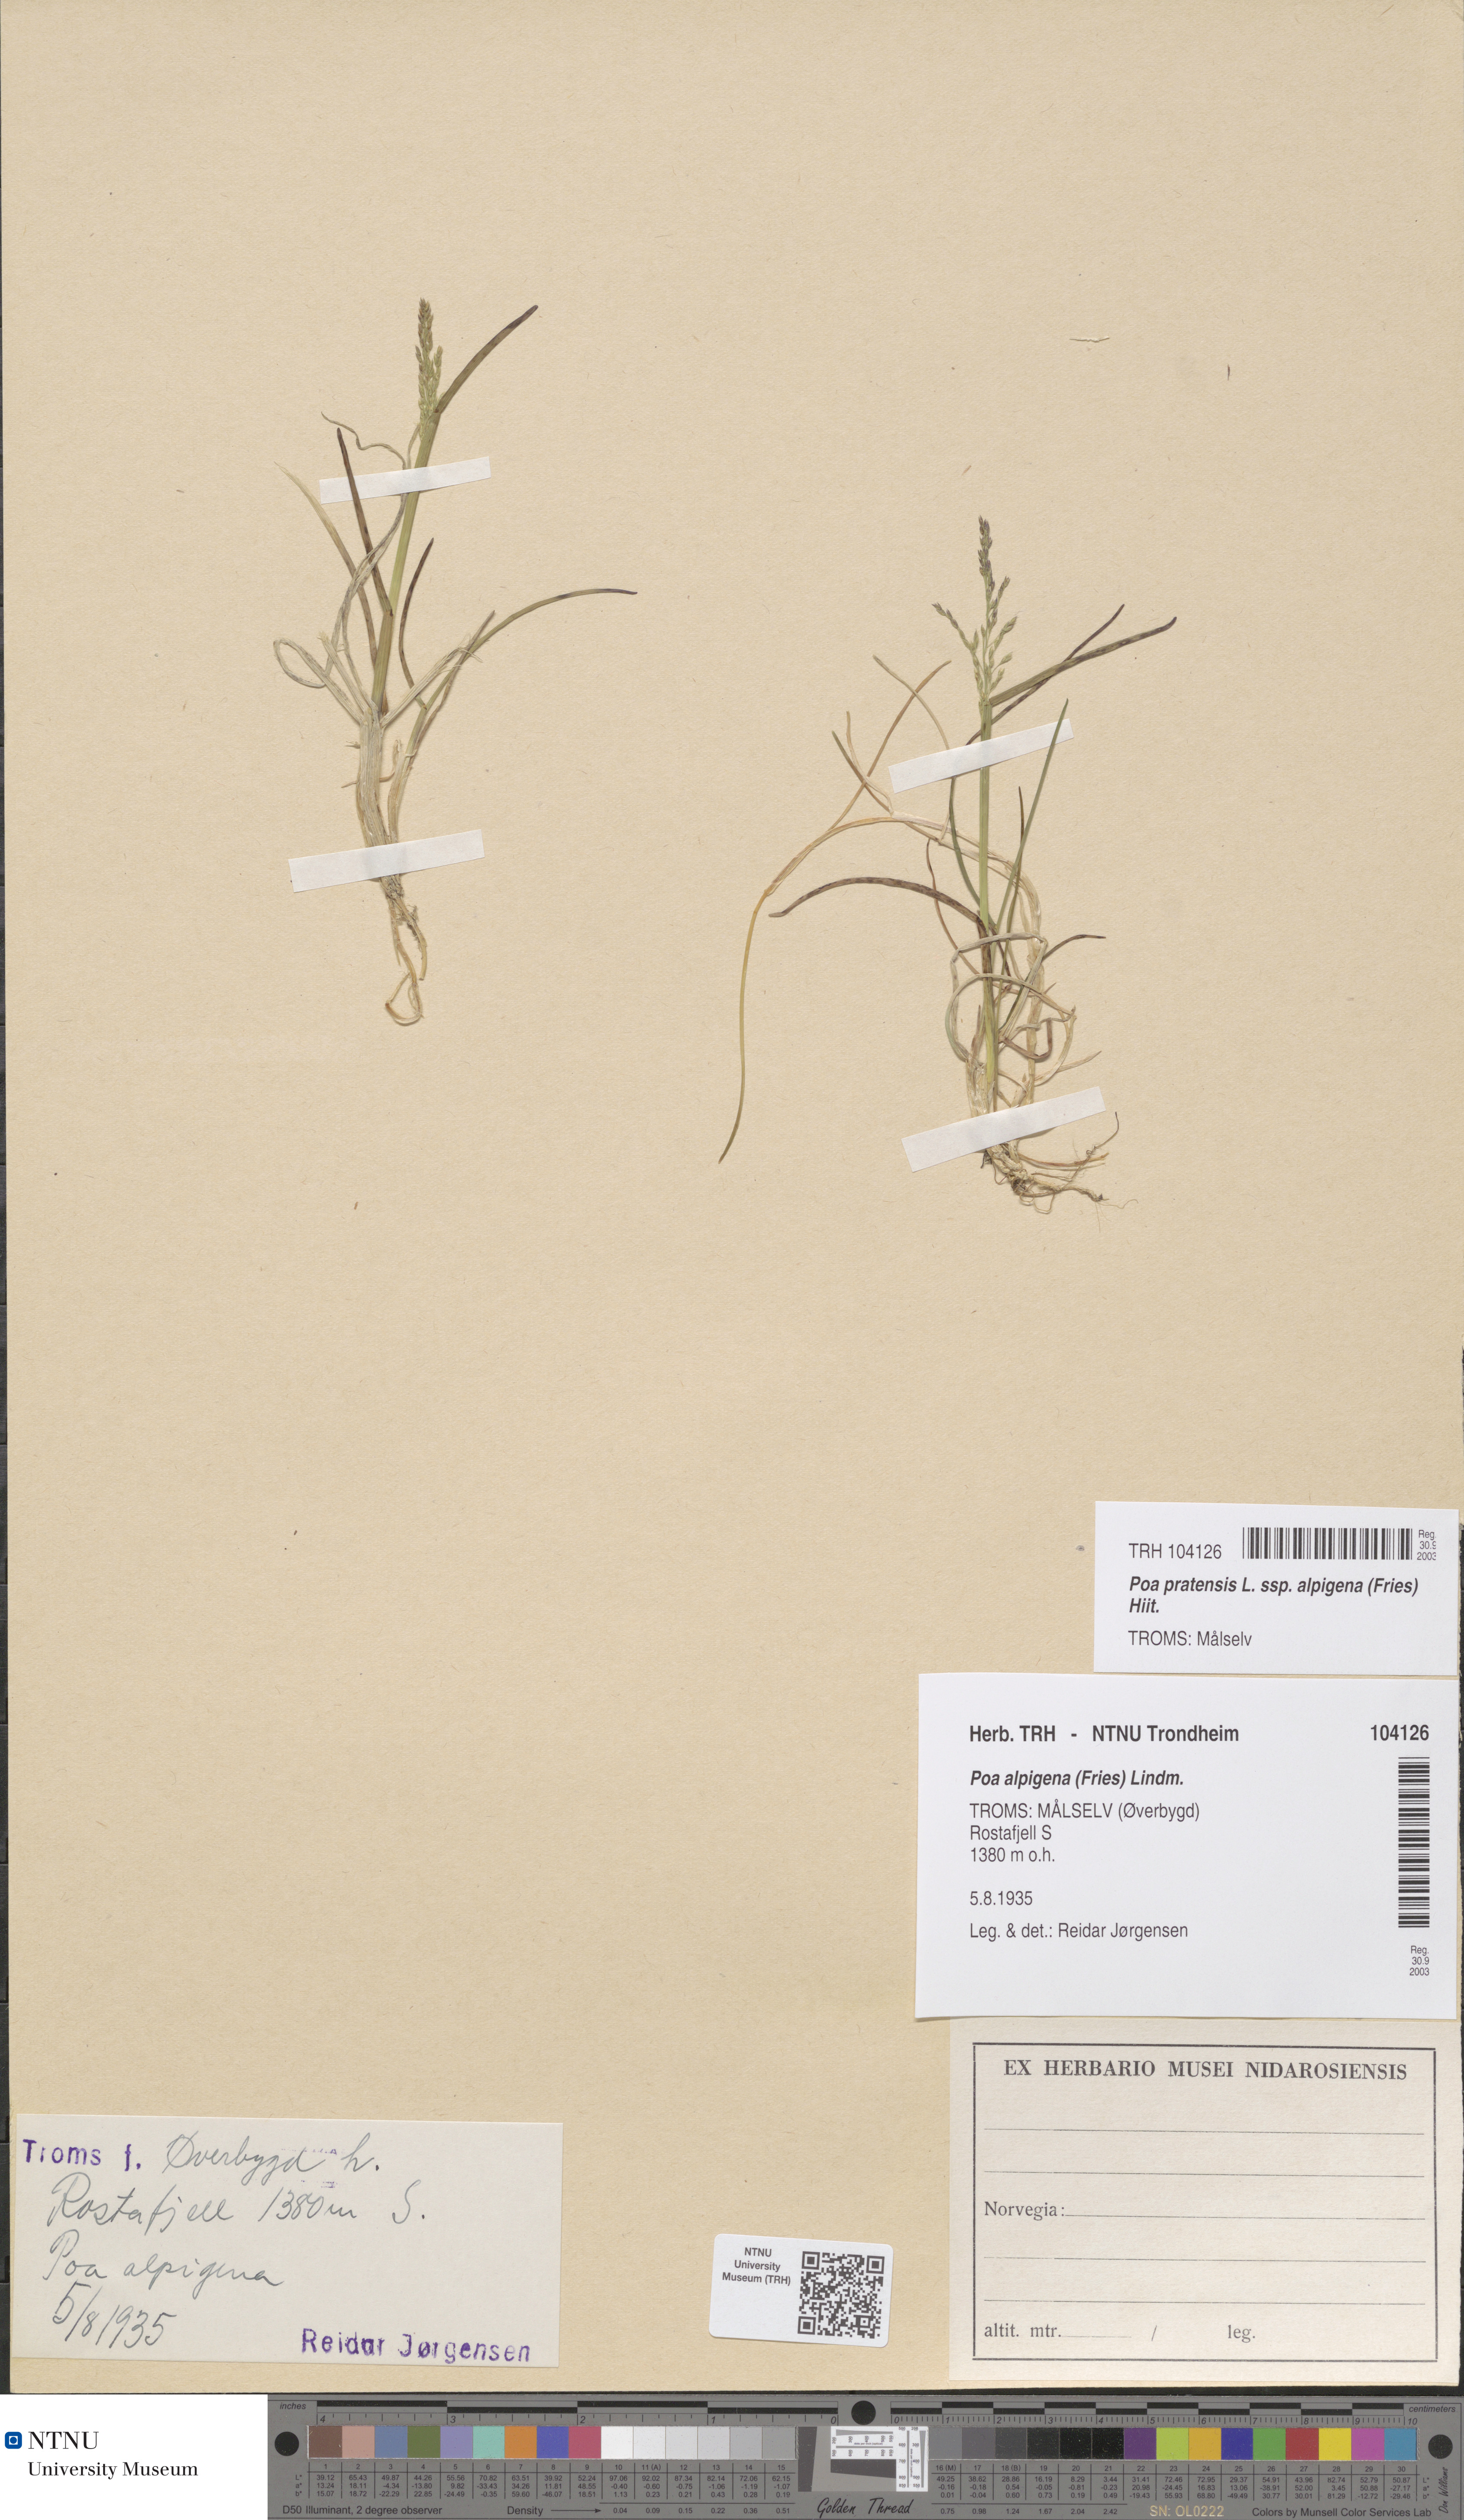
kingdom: Plantae
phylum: Tracheophyta
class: Liliopsida
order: Poales
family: Poaceae
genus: Poa
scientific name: Poa alpigena
